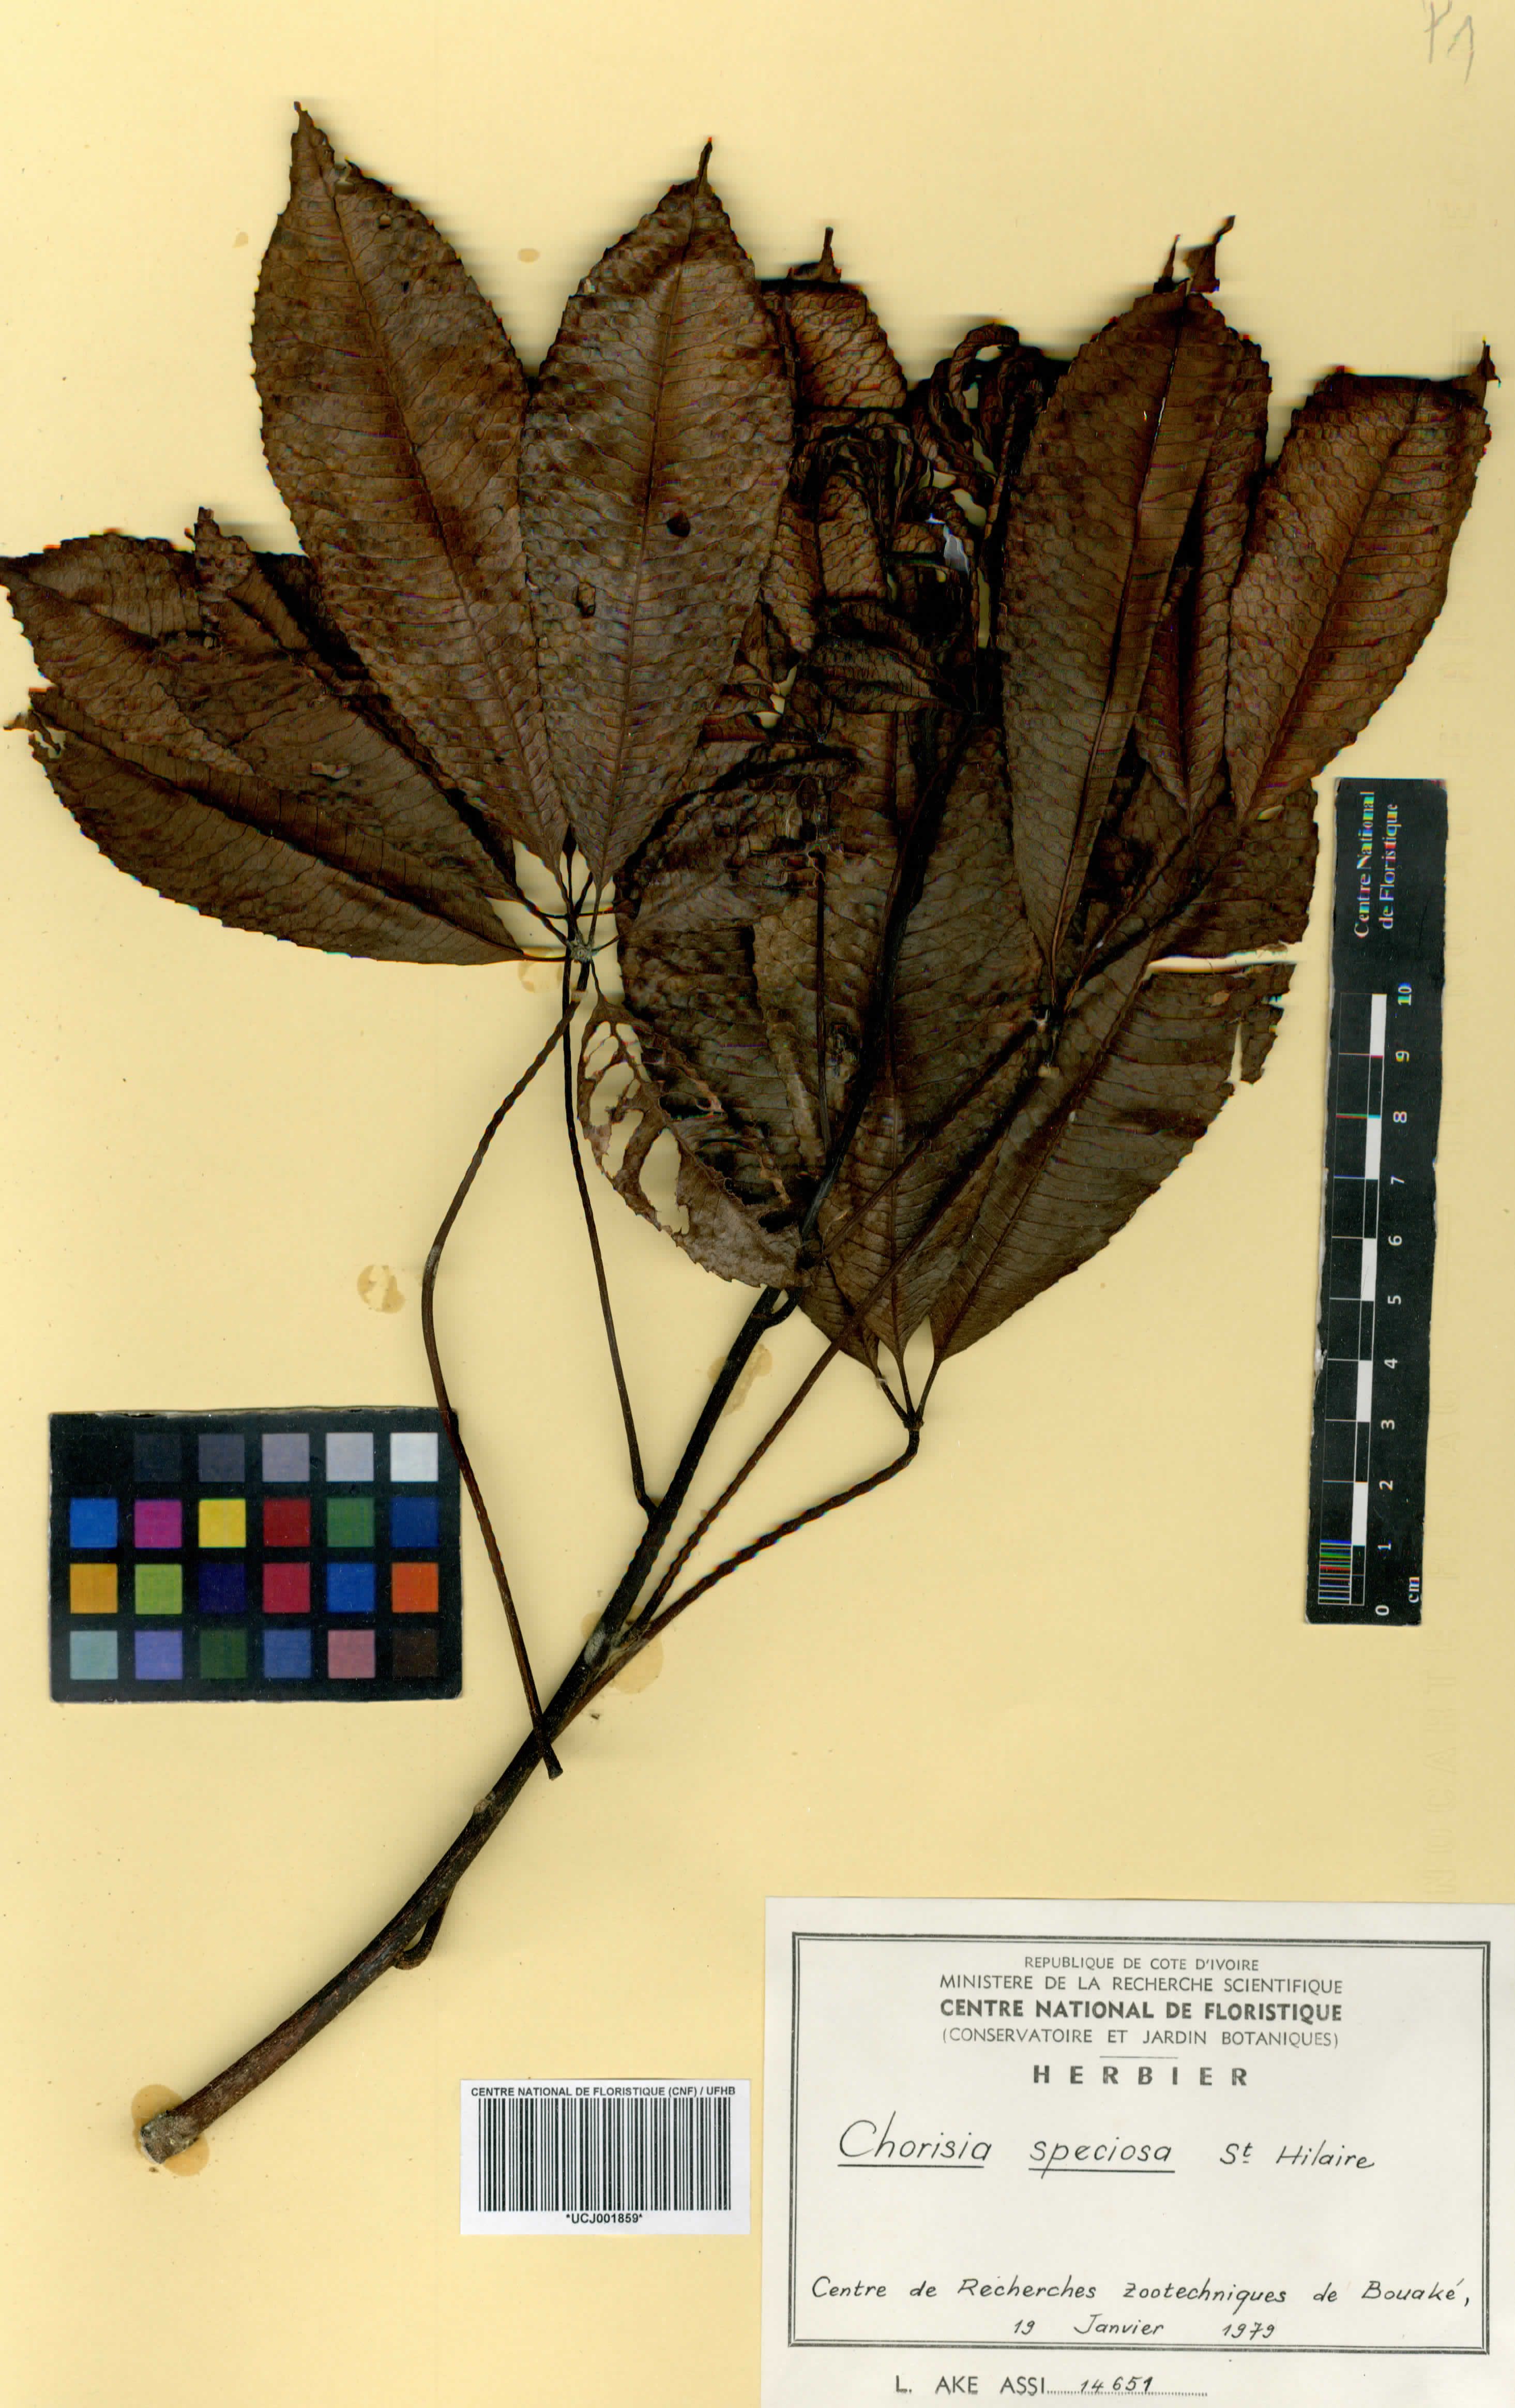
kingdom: Plantae
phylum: Tracheophyta
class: Magnoliopsida
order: Malvales
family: Malvaceae
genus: Ceiba
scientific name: Ceiba speciosa
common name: Silk-floss tree
